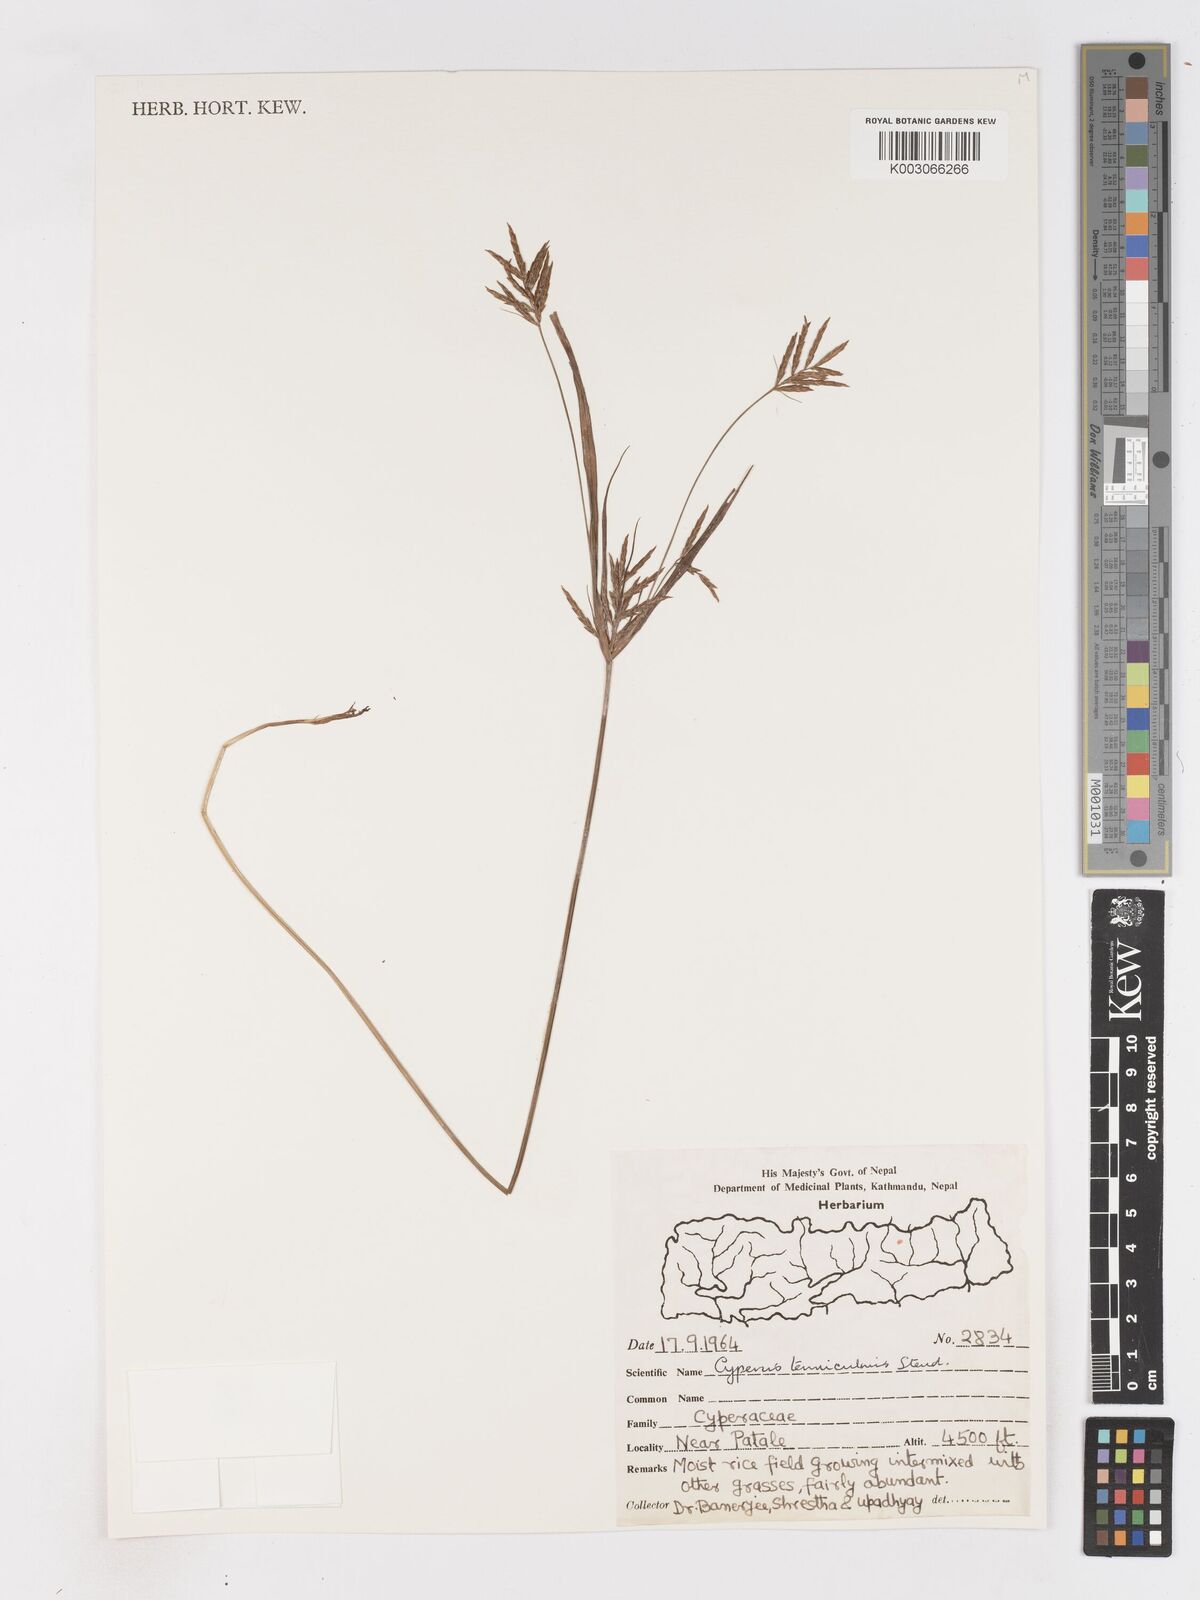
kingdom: Plantae
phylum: Tracheophyta
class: Liliopsida
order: Poales
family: Cyperaceae
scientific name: Cyperaceae
